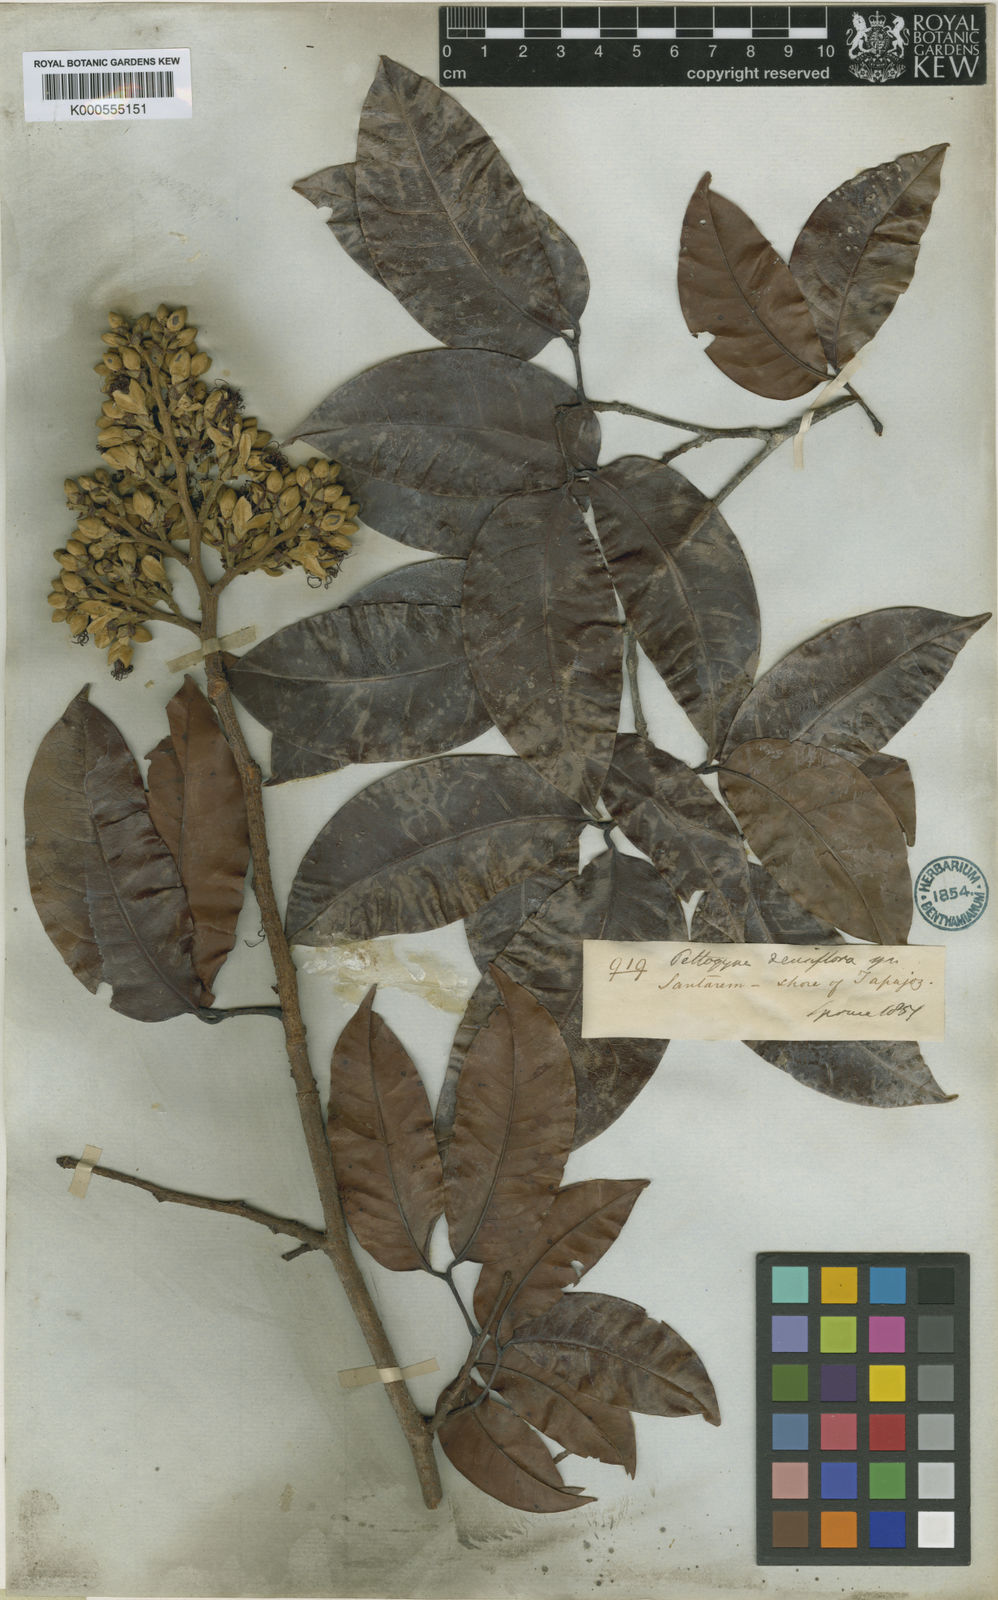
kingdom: Plantae
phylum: Tracheophyta
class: Magnoliopsida
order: Fabales
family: Fabaceae
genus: Peltogyne
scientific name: Peltogyne venosa
